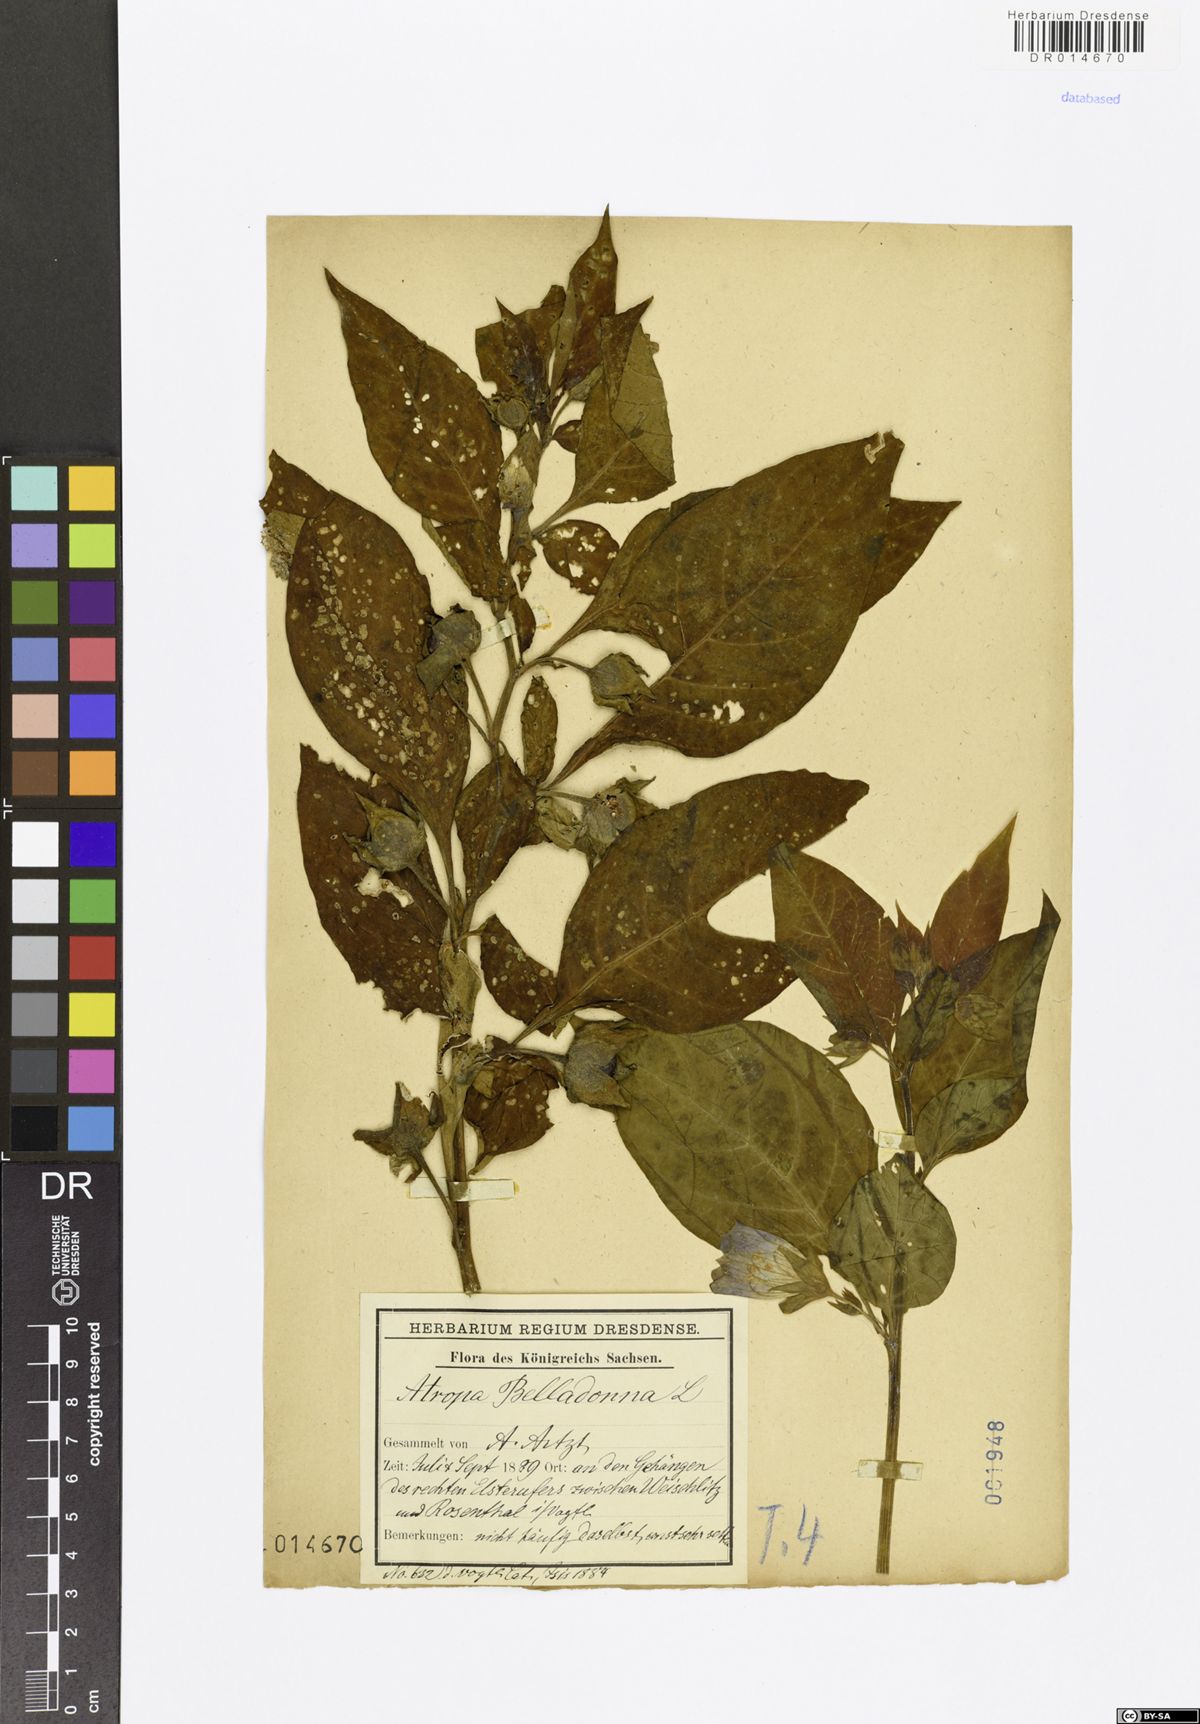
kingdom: Plantae
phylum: Tracheophyta
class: Magnoliopsida
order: Solanales
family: Solanaceae
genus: Atropa
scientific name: Atropa belladonna
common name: Deadly nightshade
